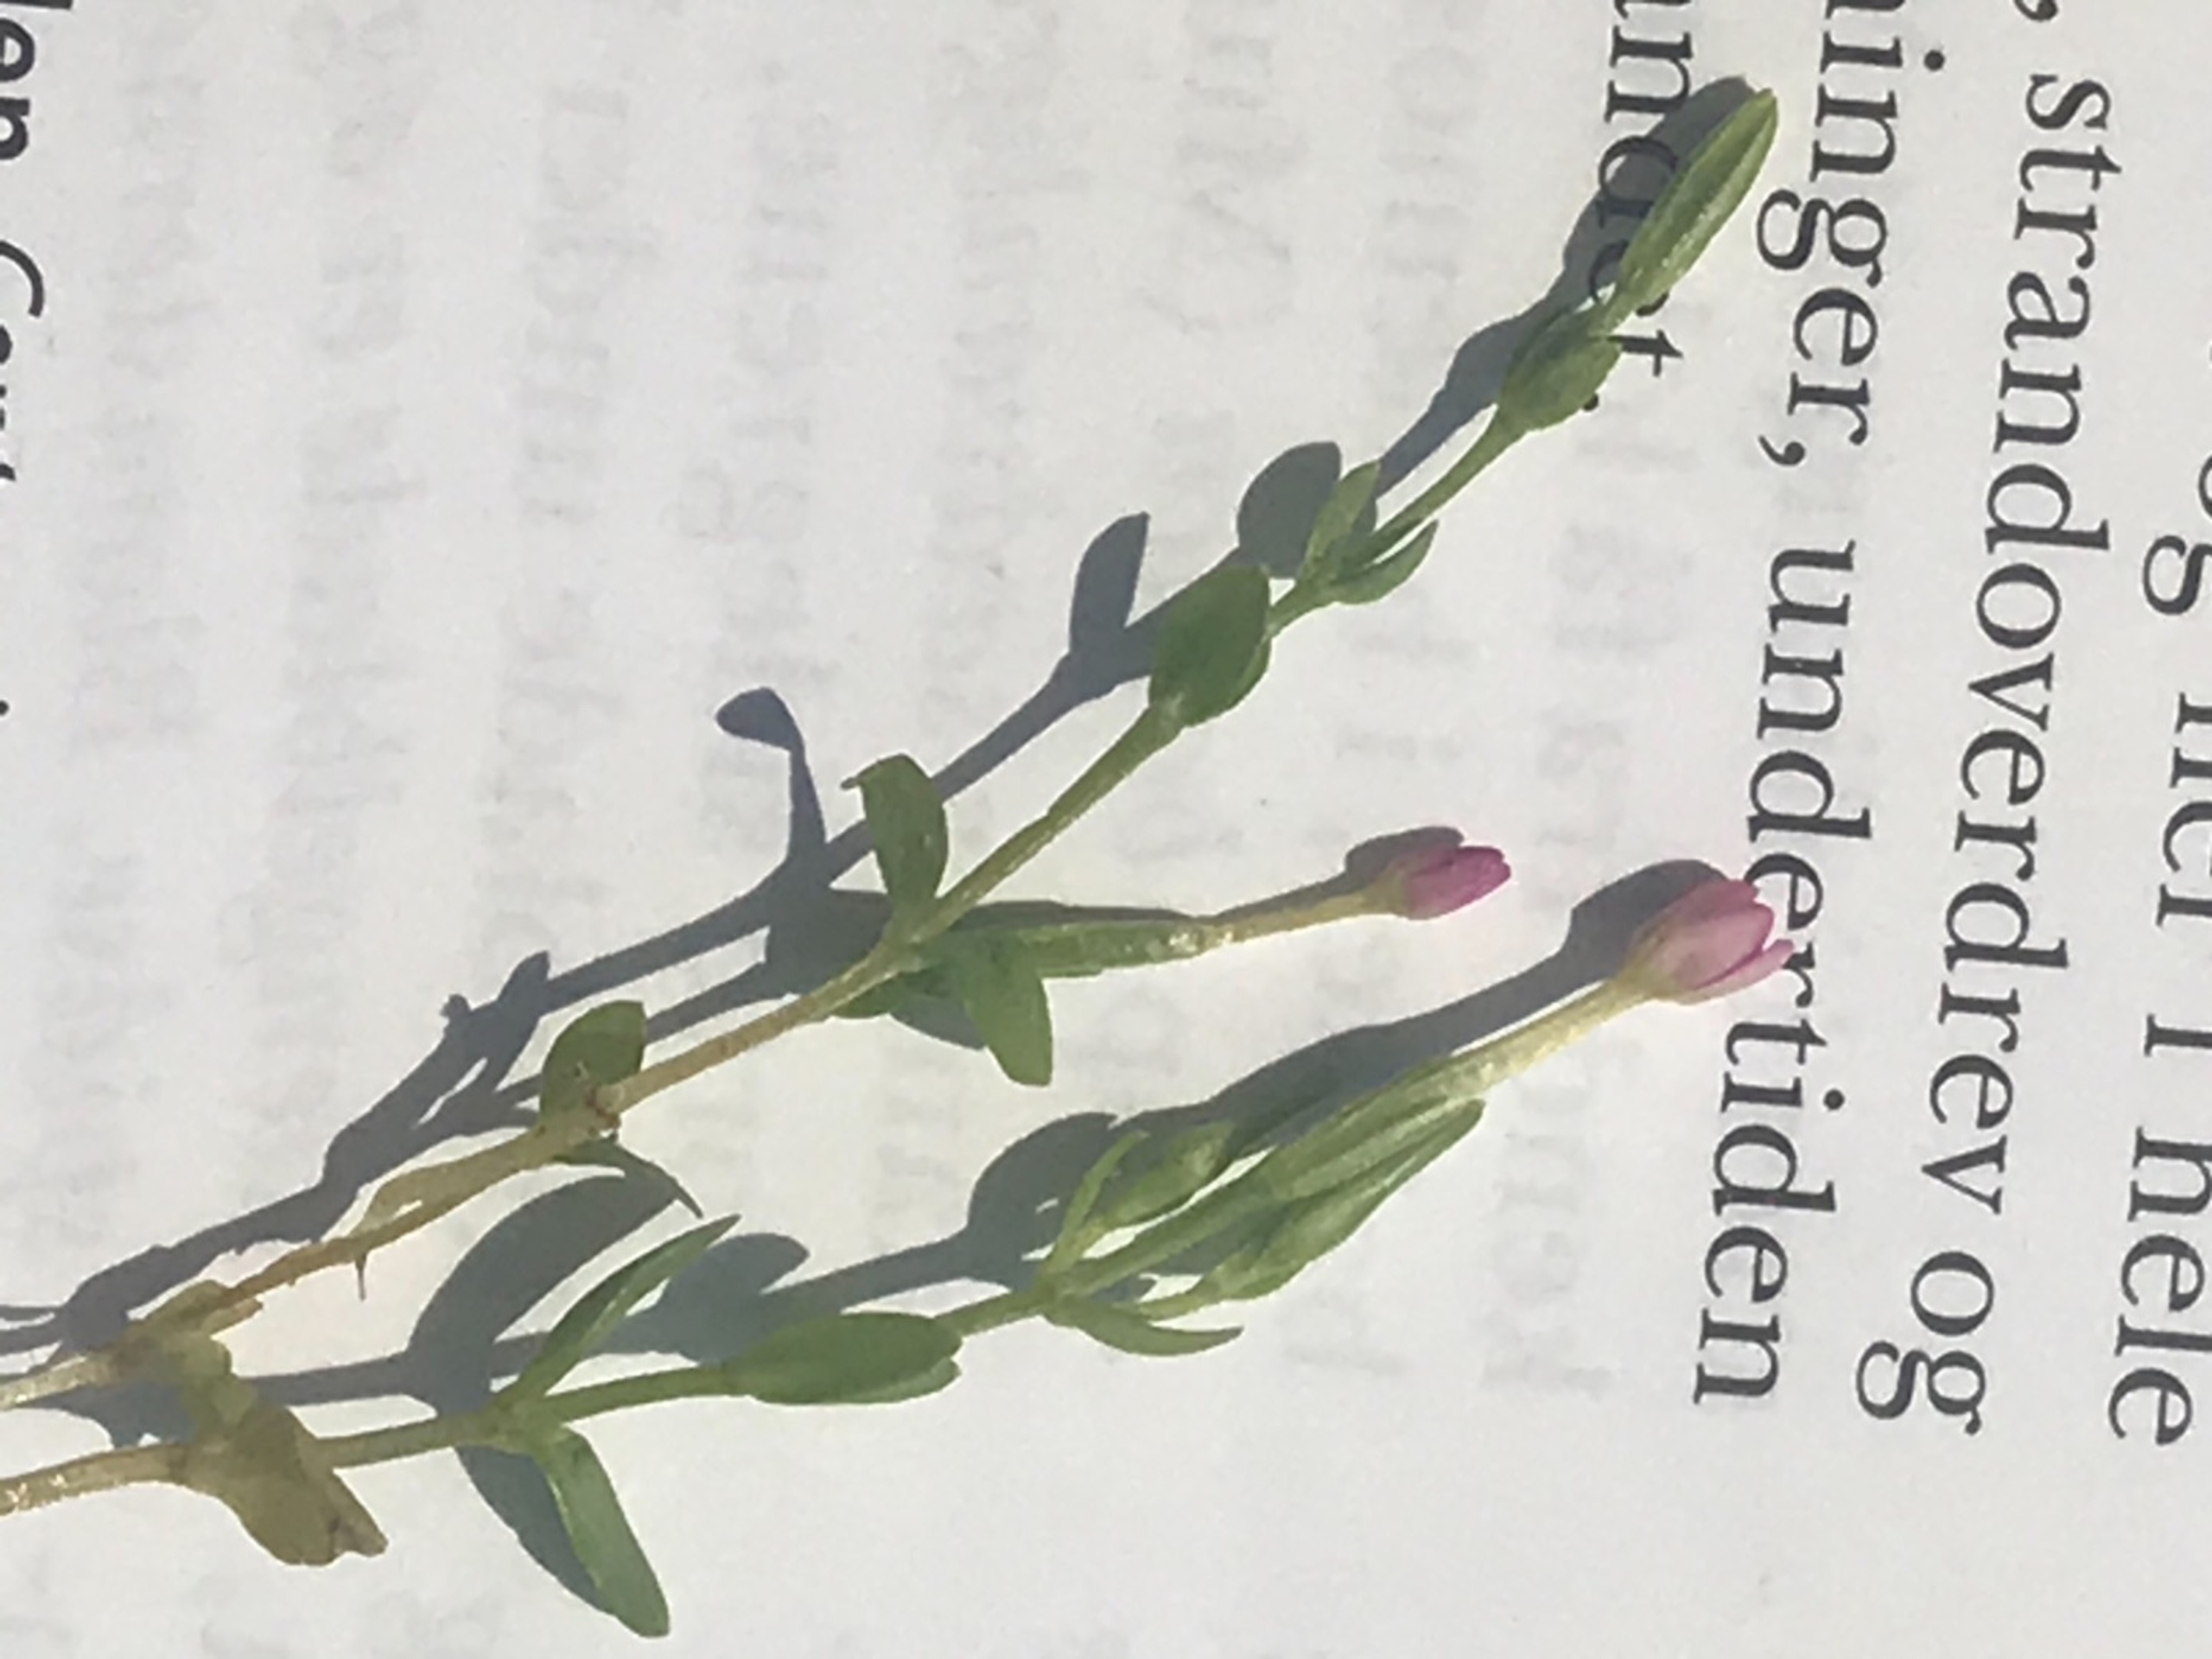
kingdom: Plantae
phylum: Tracheophyta
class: Magnoliopsida
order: Gentianales
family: Gentianaceae
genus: Centaurium
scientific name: Centaurium erythraea
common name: Mark-tusindgylden
